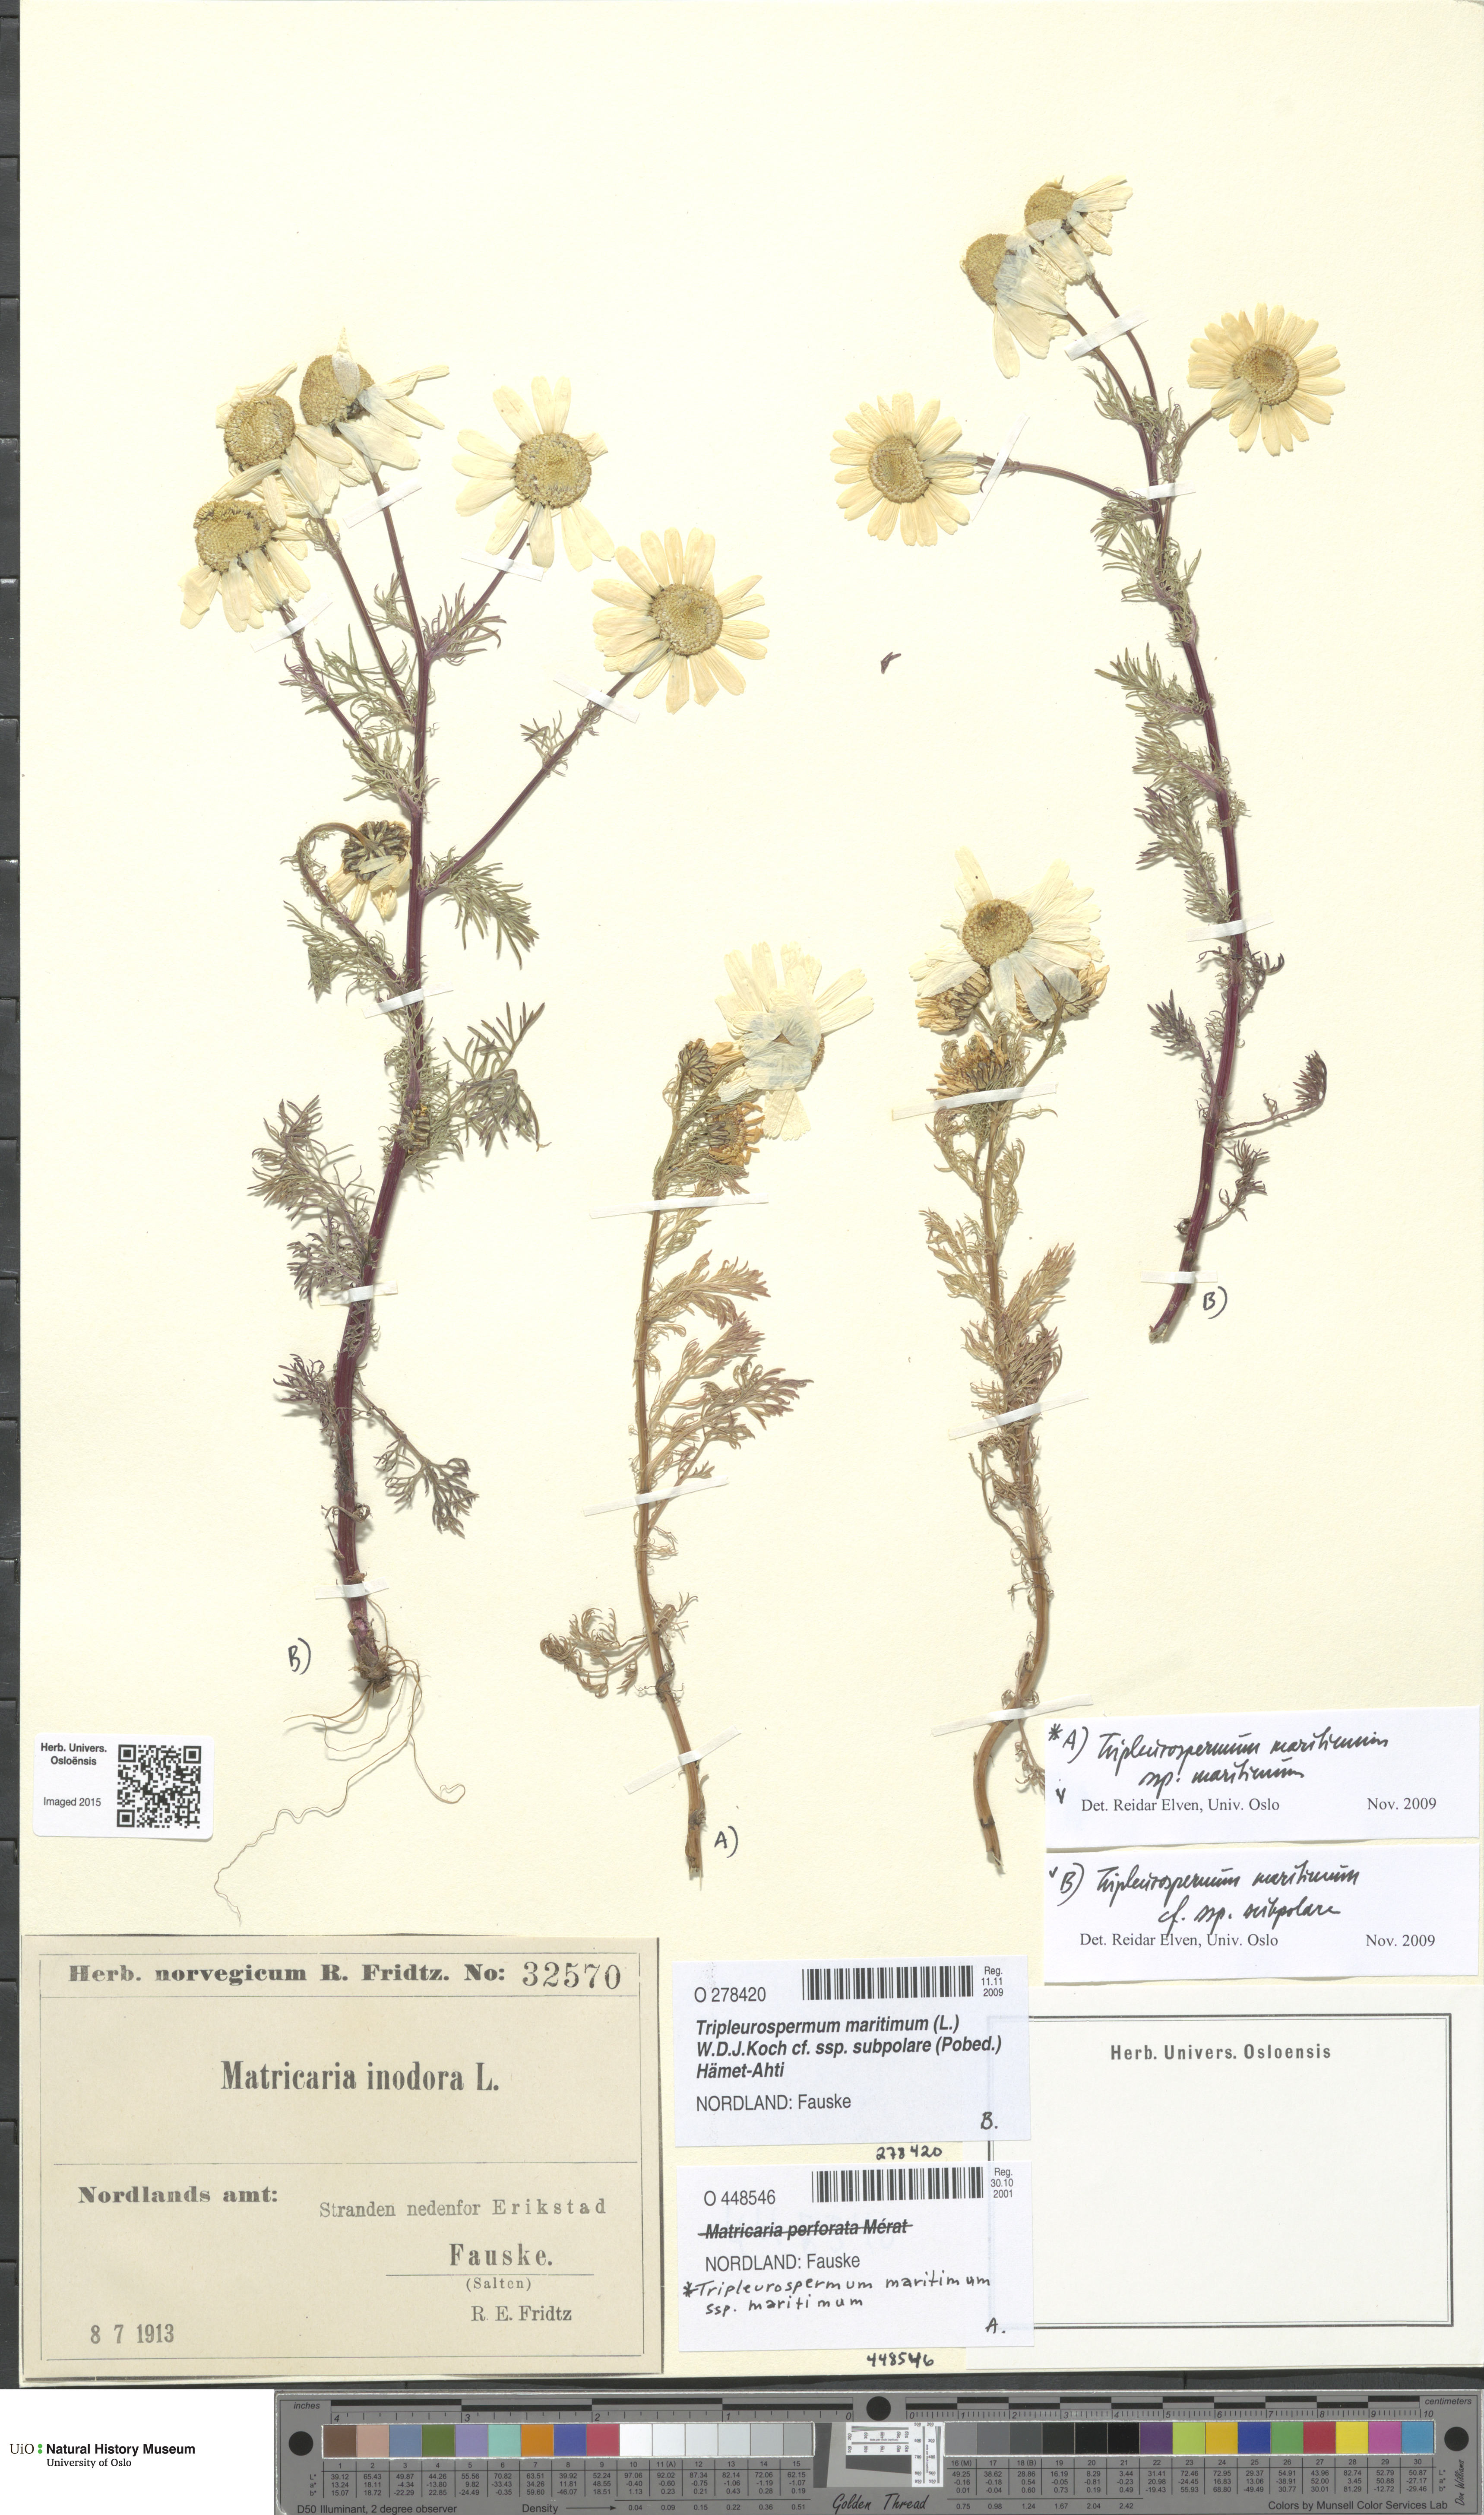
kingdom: Plantae
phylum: Tracheophyta
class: Magnoliopsida
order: Asterales
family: Asteraceae
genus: Tripleurospermum
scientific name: Tripleurospermum subpolare
